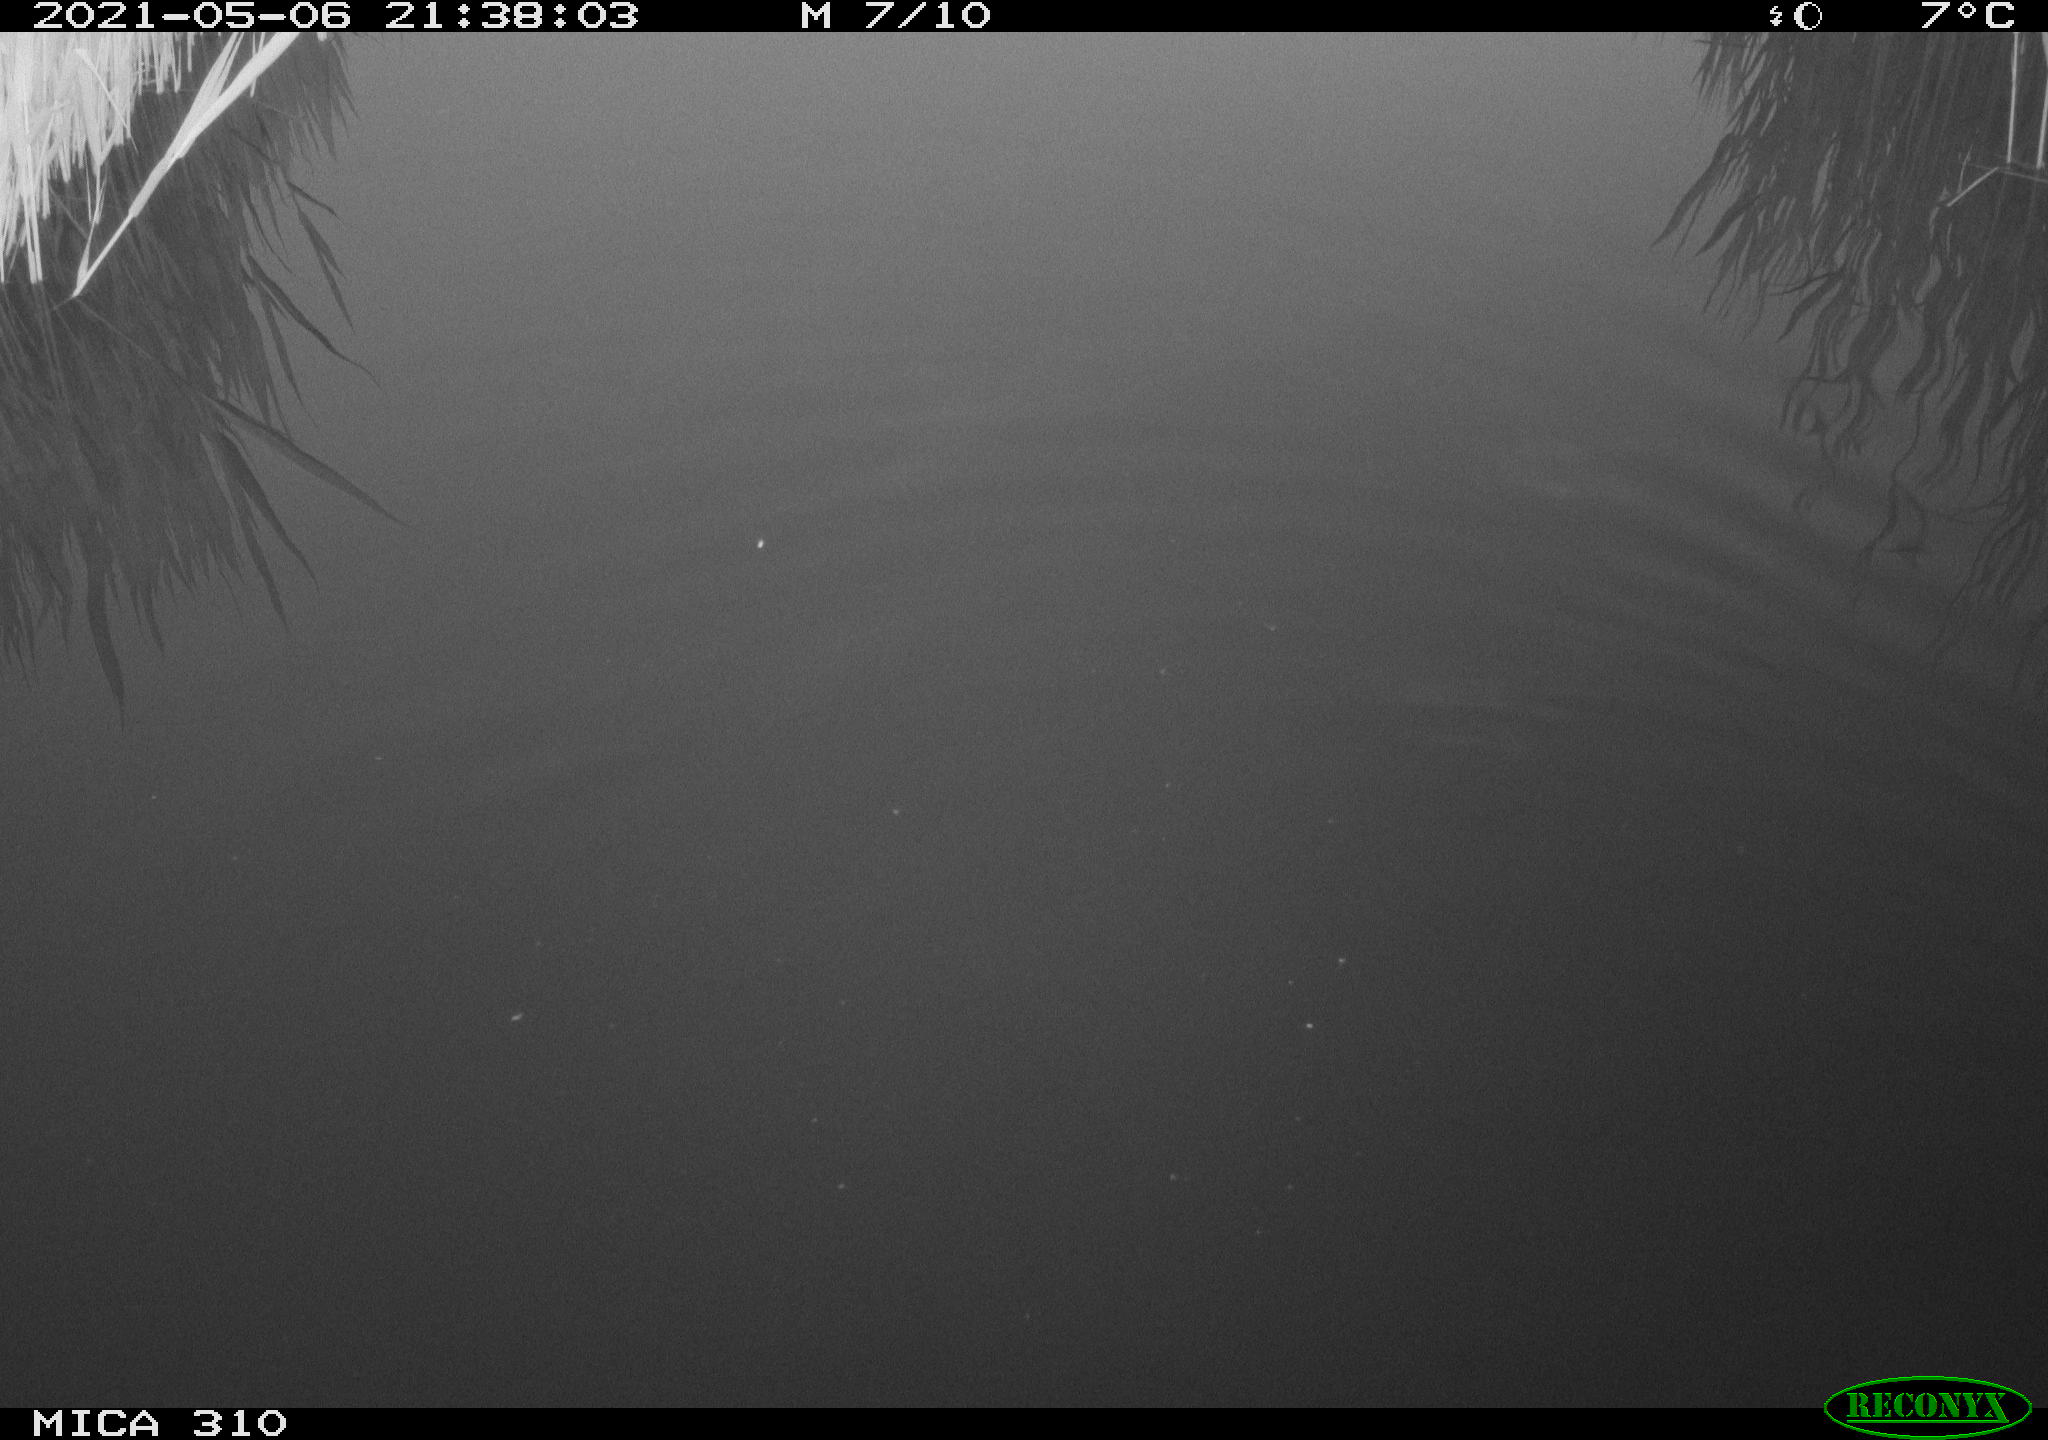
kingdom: Animalia
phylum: Chordata
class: Aves
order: Gruiformes
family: Rallidae
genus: Gallinula
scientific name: Gallinula chloropus
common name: Common moorhen
